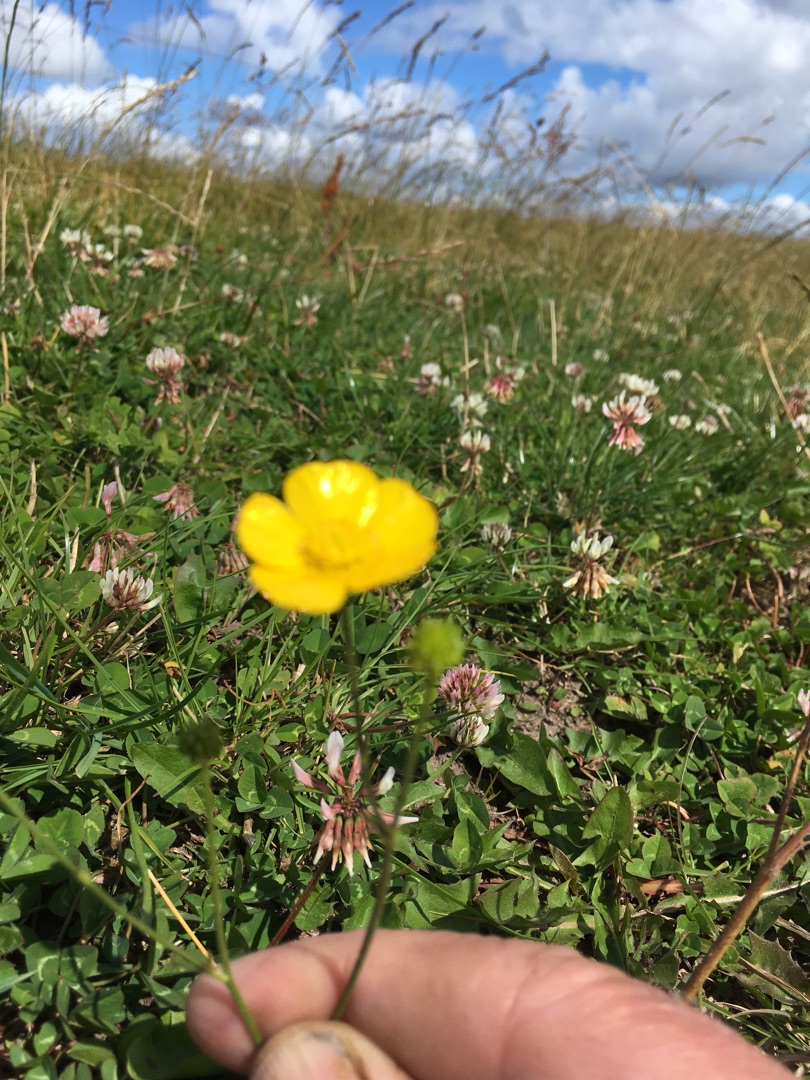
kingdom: Plantae
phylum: Tracheophyta
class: Magnoliopsida
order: Ranunculales
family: Ranunculaceae
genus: Ranunculus
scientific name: Ranunculus
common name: Ranunkelslægten
